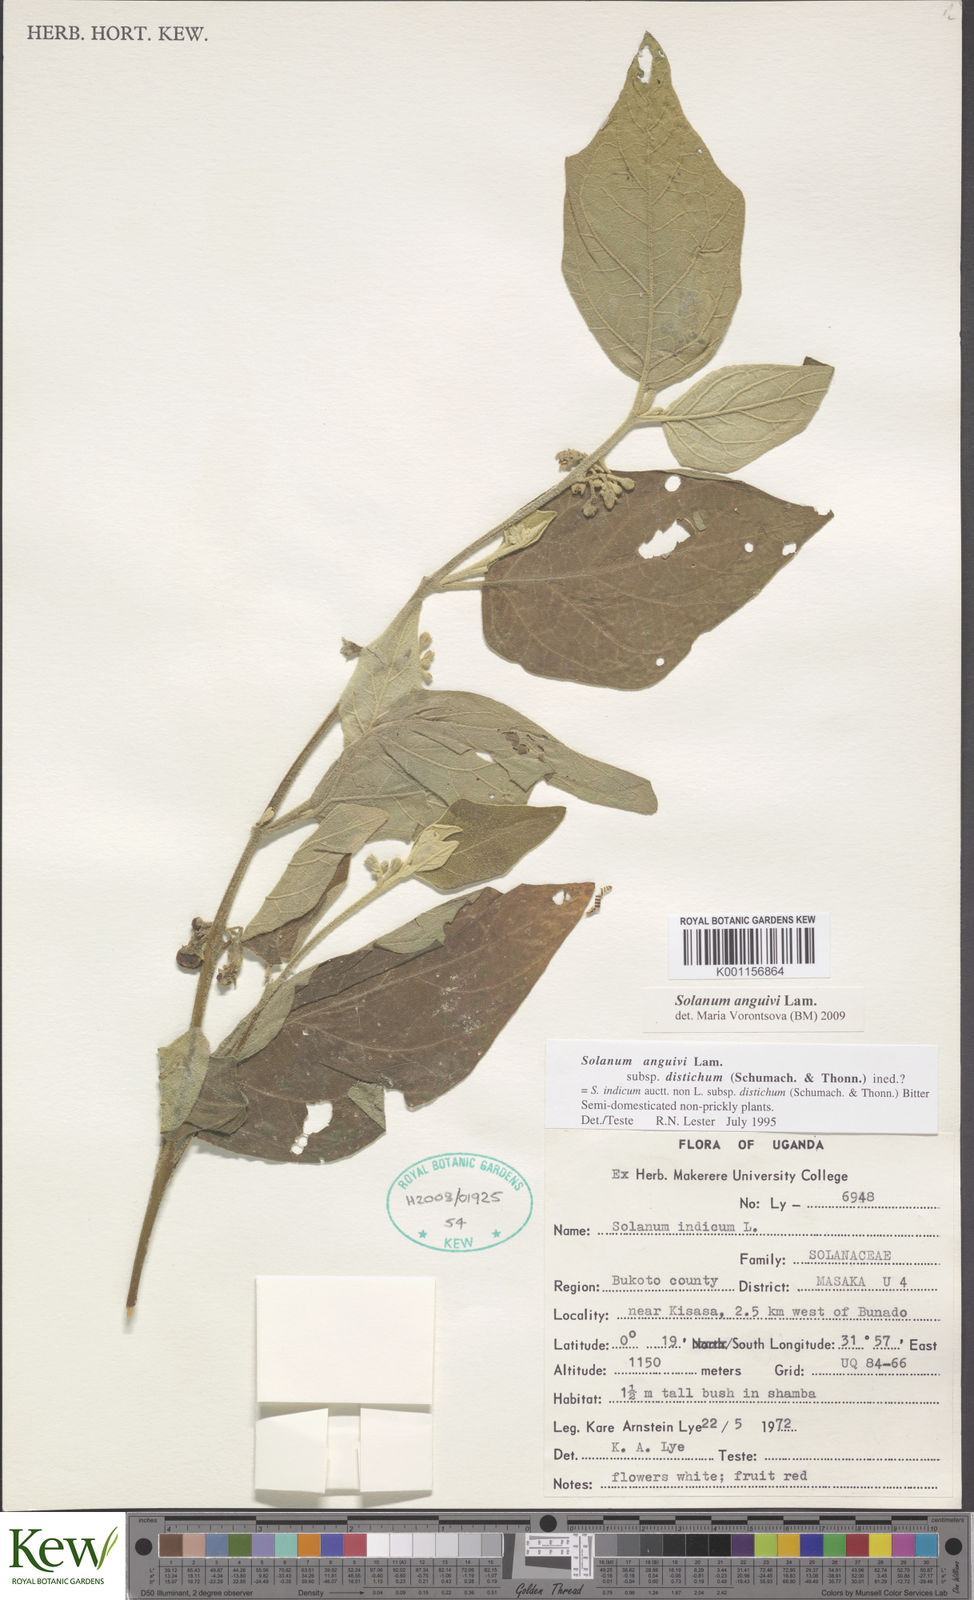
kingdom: Plantae
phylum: Tracheophyta
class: Magnoliopsida
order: Solanales
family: Solanaceae
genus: Solanum
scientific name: Solanum anguivi
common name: Forest bitterberry
